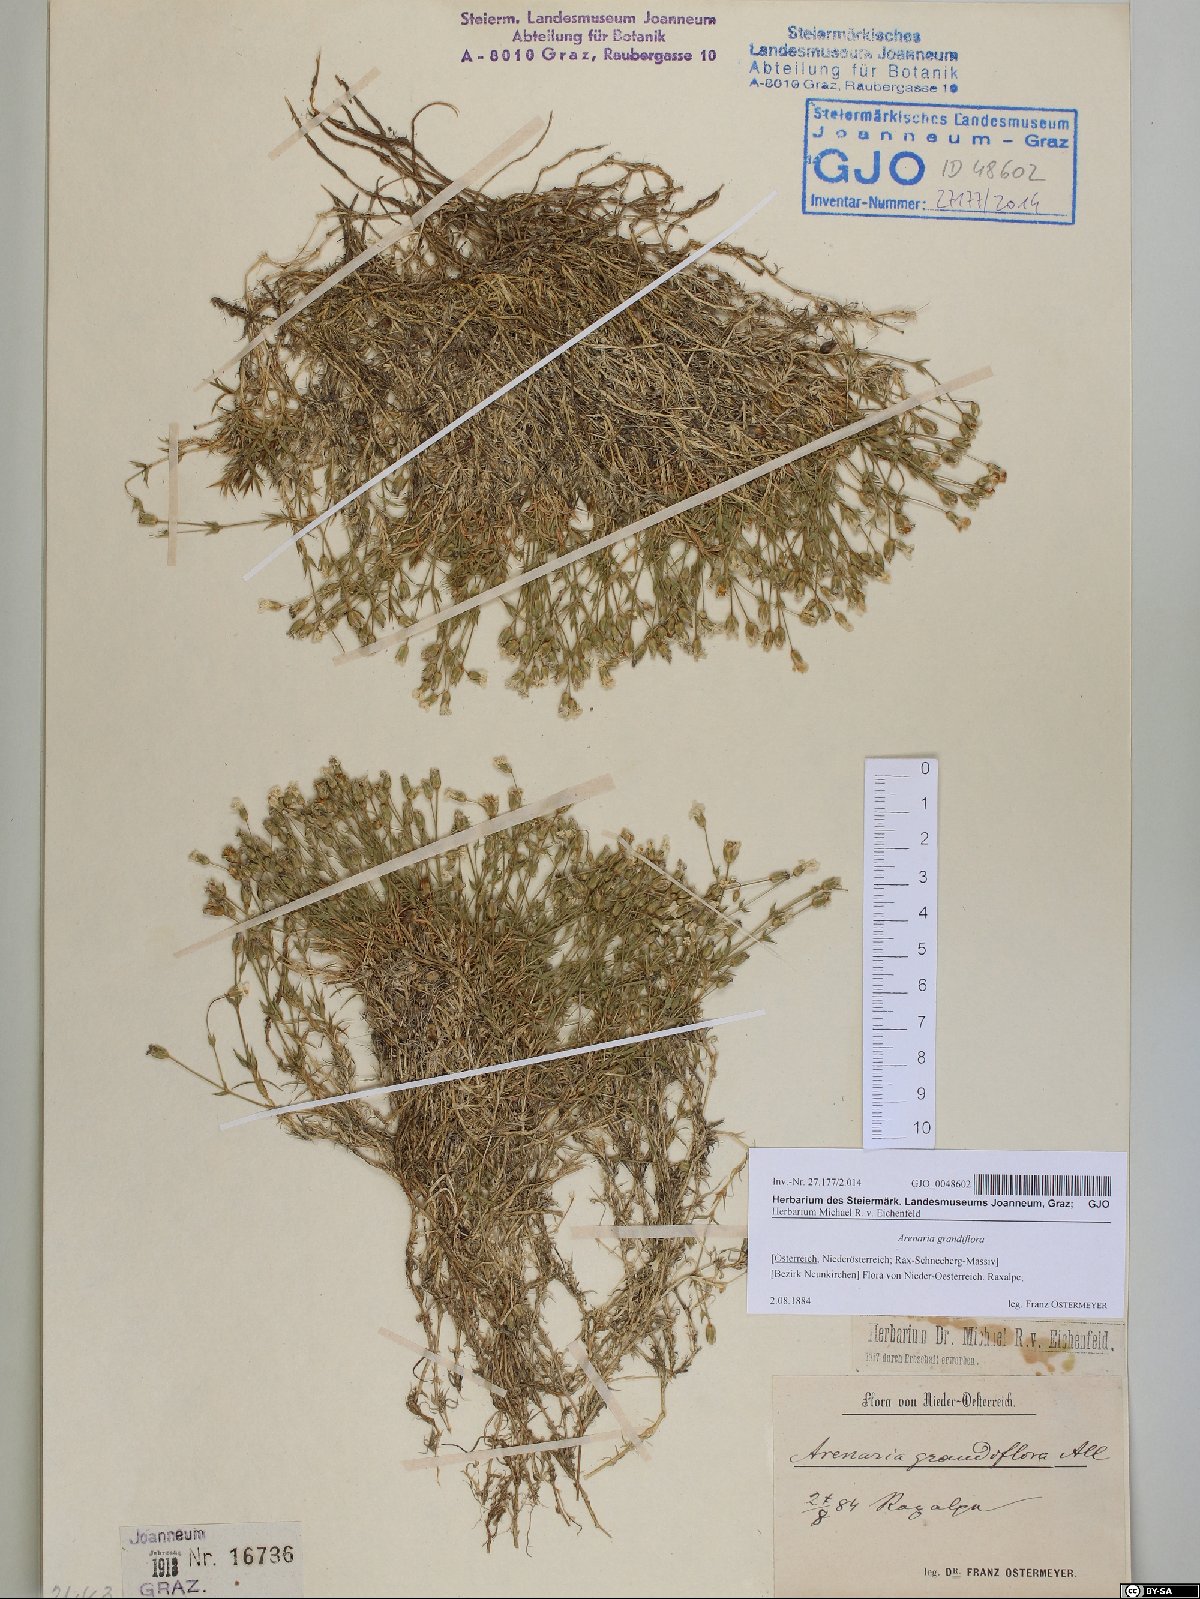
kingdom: Plantae
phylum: Tracheophyta
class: Magnoliopsida
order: Caryophyllales
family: Caryophyllaceae
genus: Arenaria
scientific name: Arenaria grandiflora
